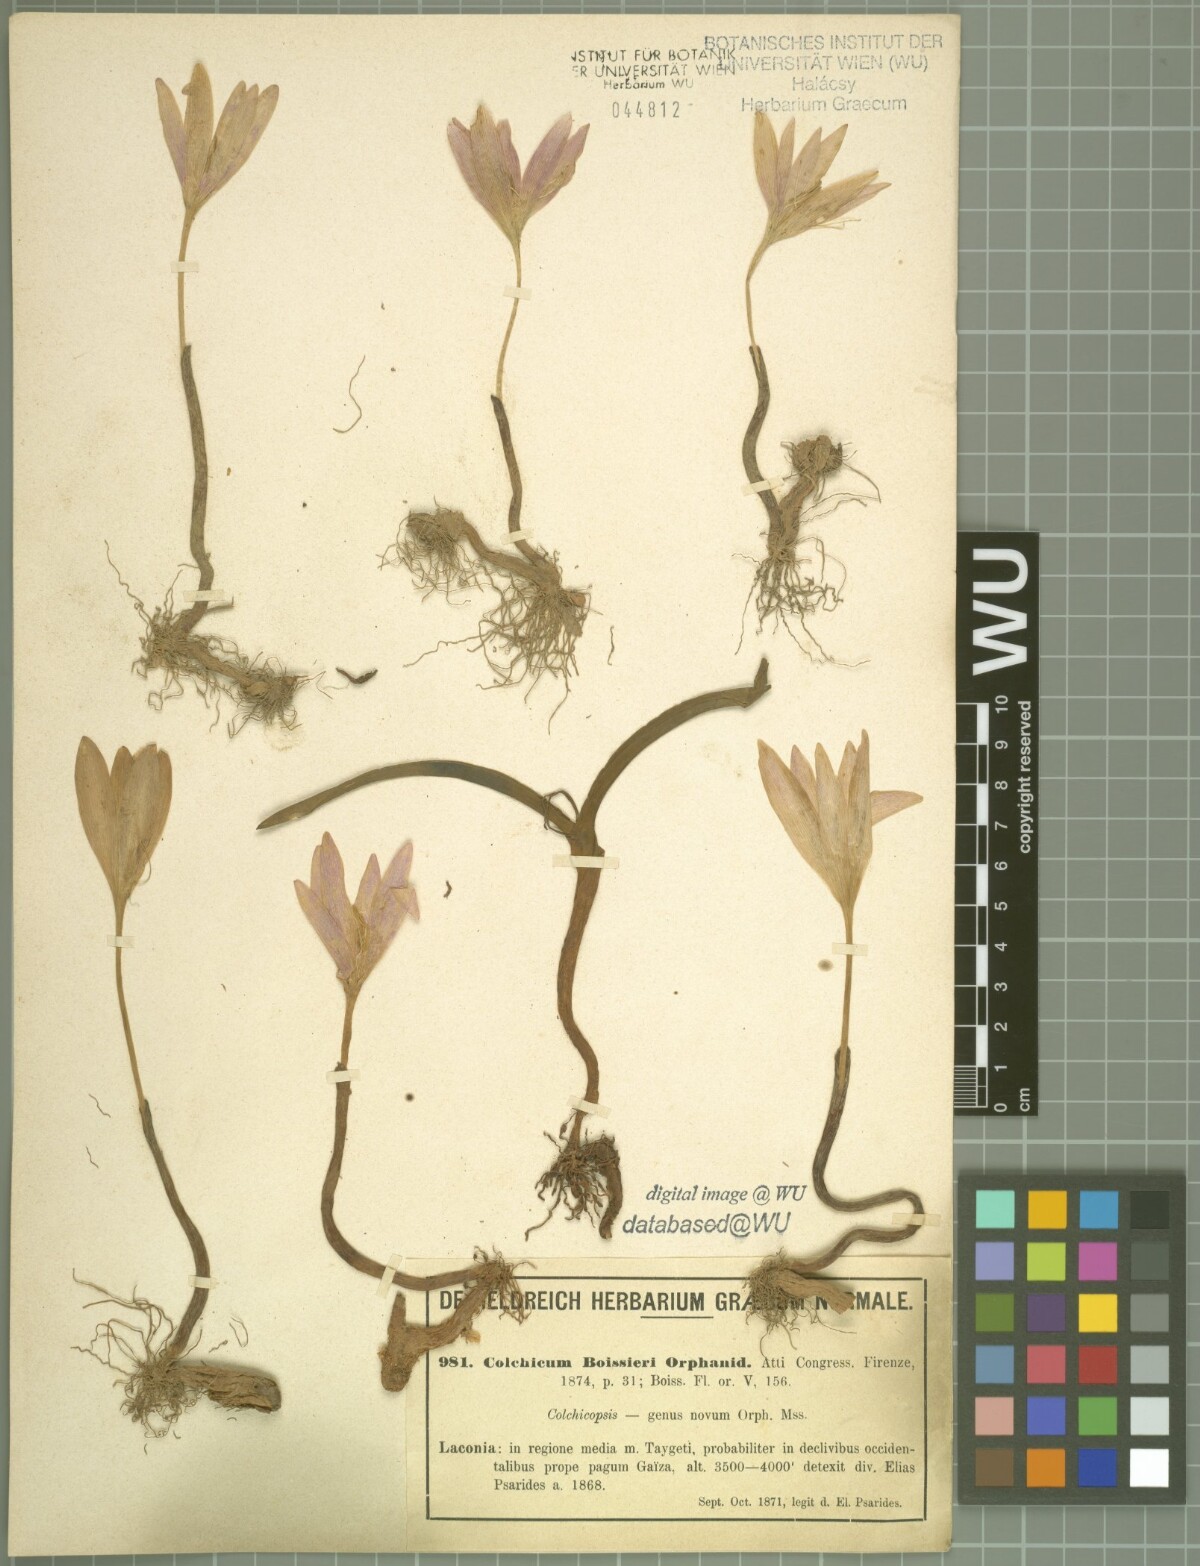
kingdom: Plantae
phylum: Tracheophyta
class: Liliopsida
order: Liliales
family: Colchicaceae
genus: Colchicum
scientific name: Colchicum boissieri
